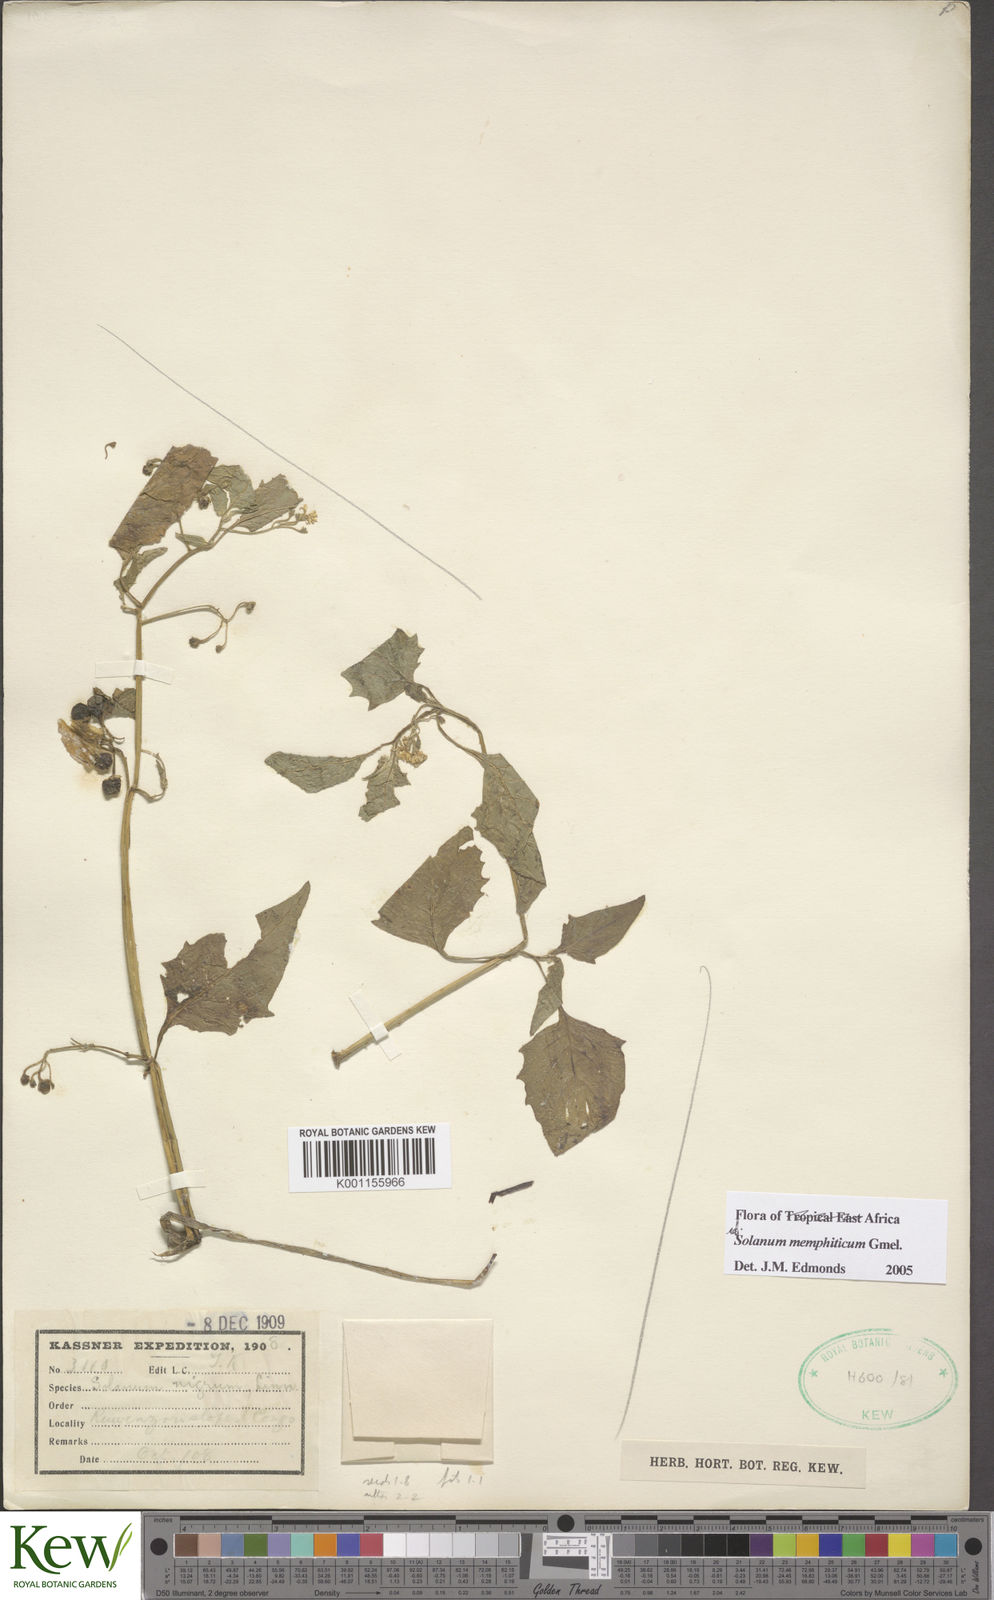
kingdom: Plantae
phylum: Tracheophyta
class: Magnoliopsida
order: Solanales
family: Solanaceae
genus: Solanum
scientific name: Solanum tarderemotum
